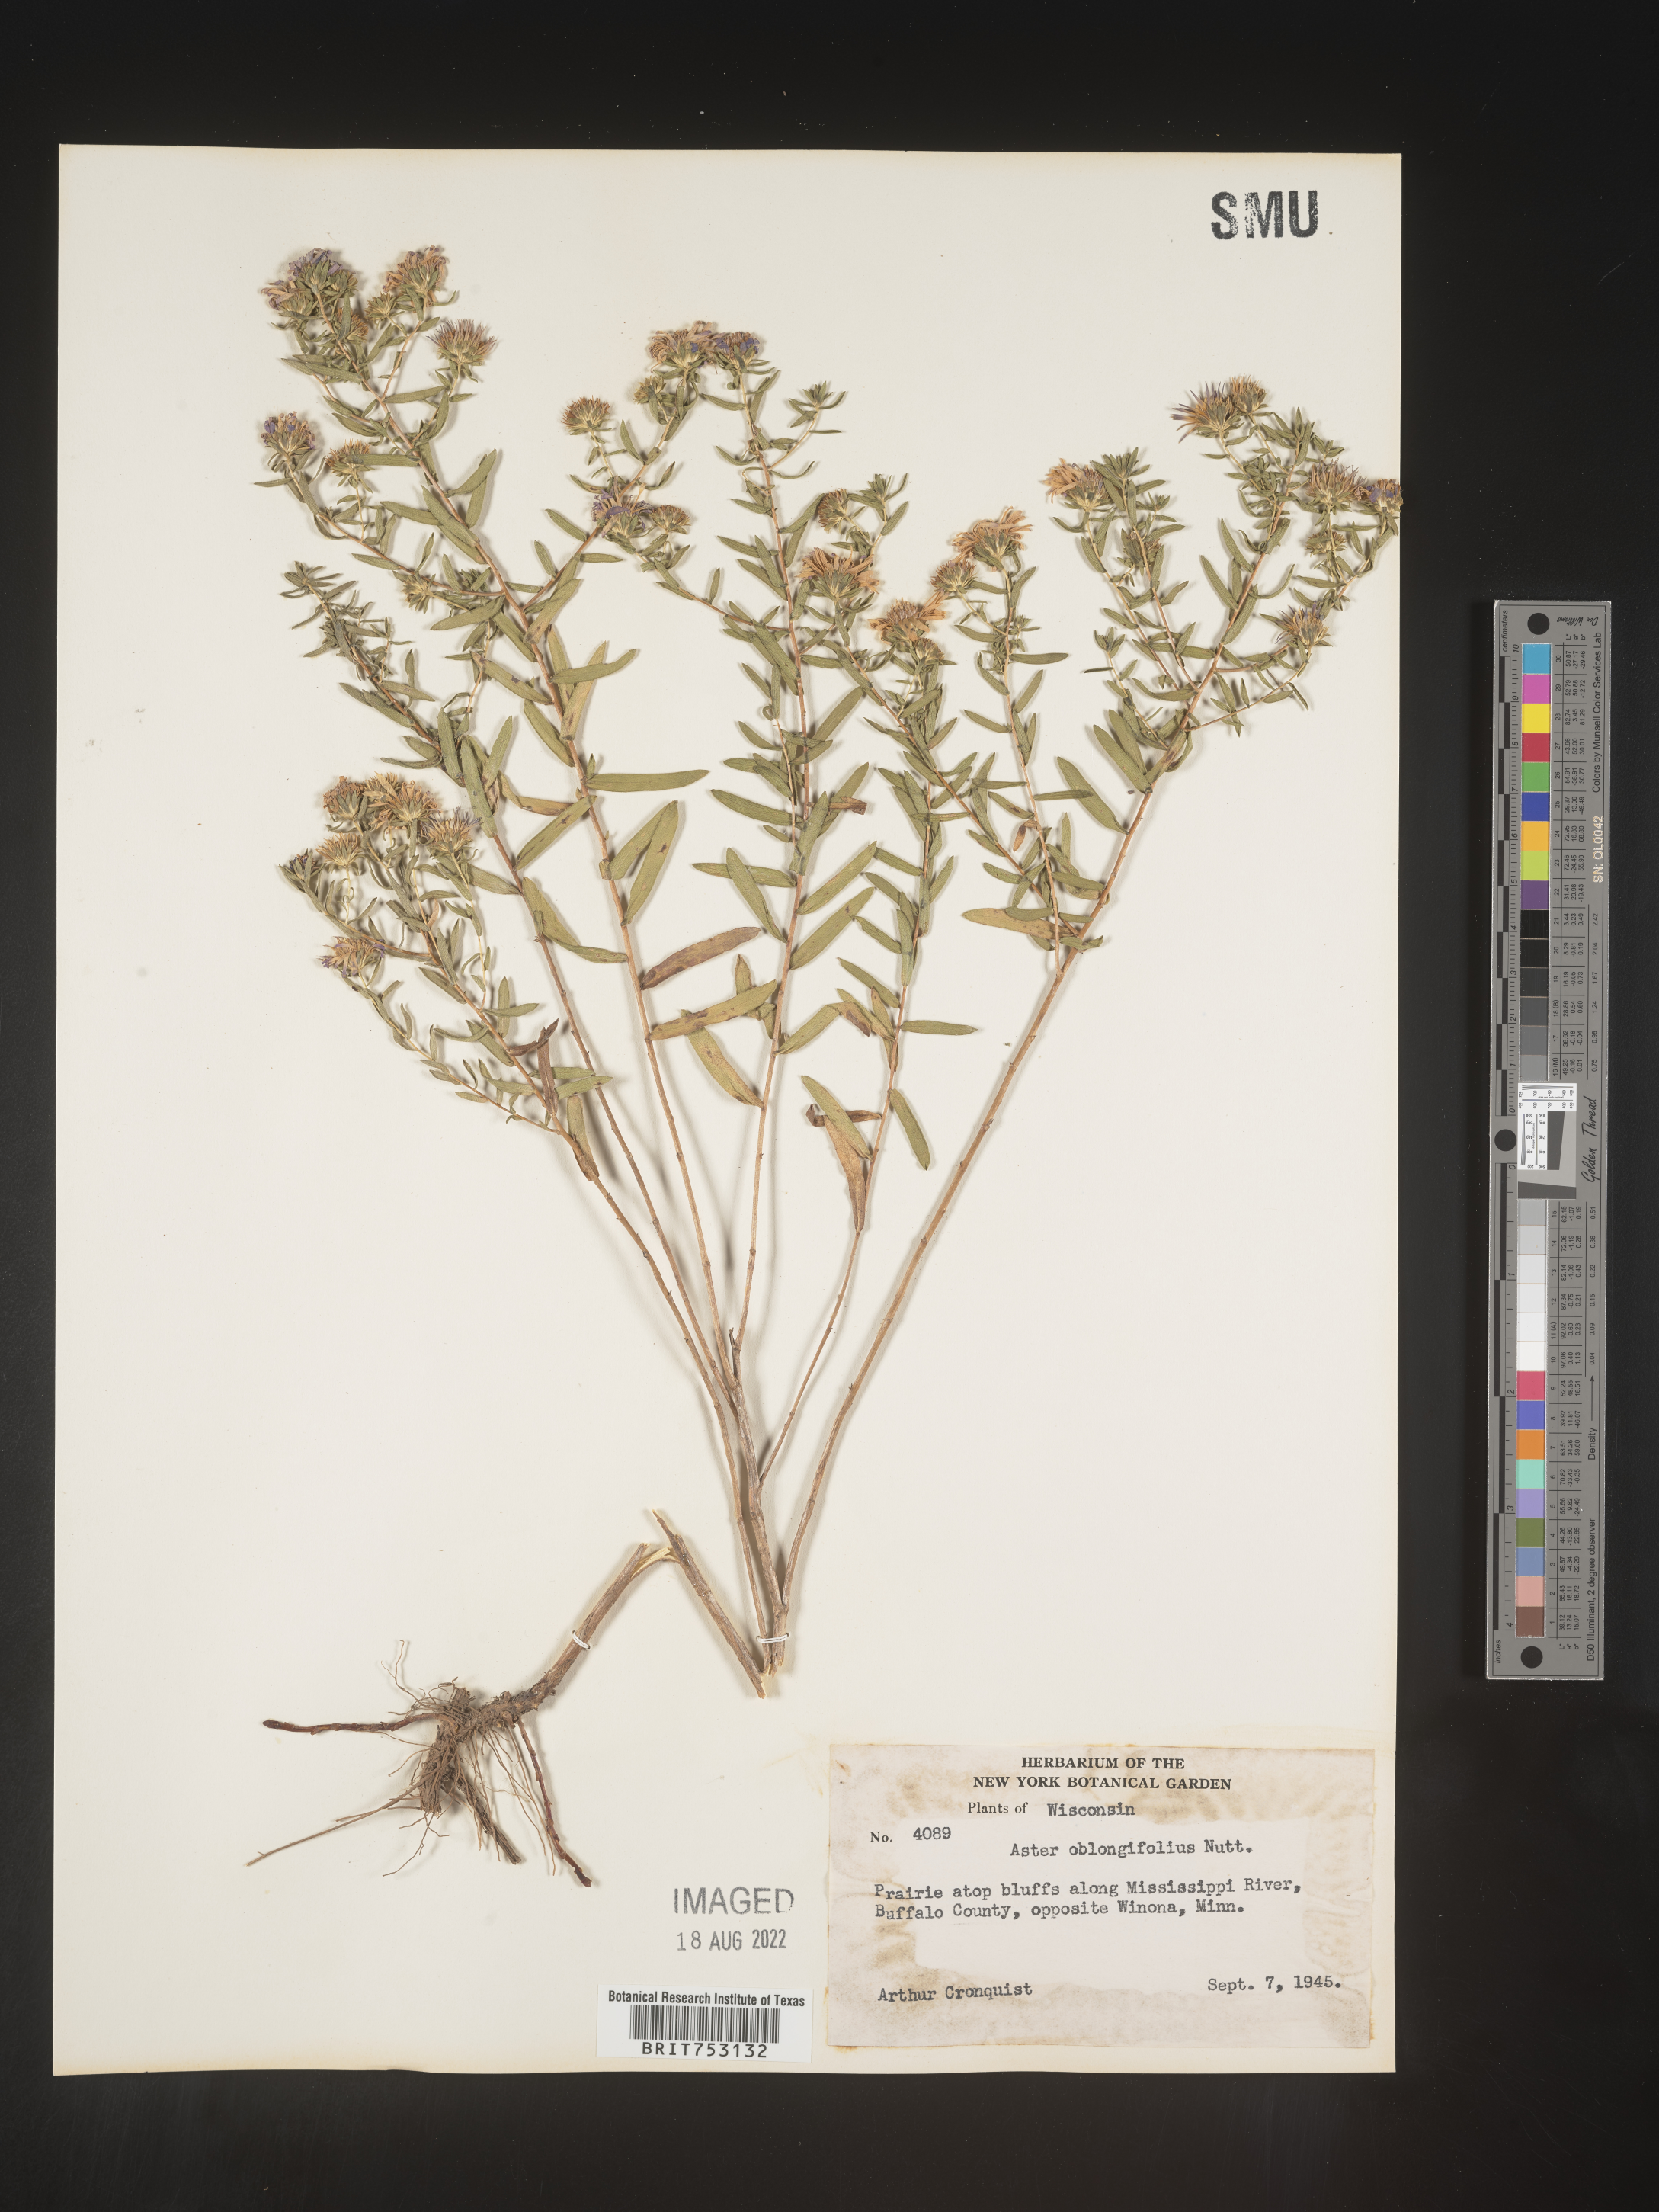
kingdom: Plantae
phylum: Tracheophyta
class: Magnoliopsida
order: Asterales
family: Asteraceae
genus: Symphyotrichum
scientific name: Symphyotrichum oblongifolium
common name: Aromatic aster
